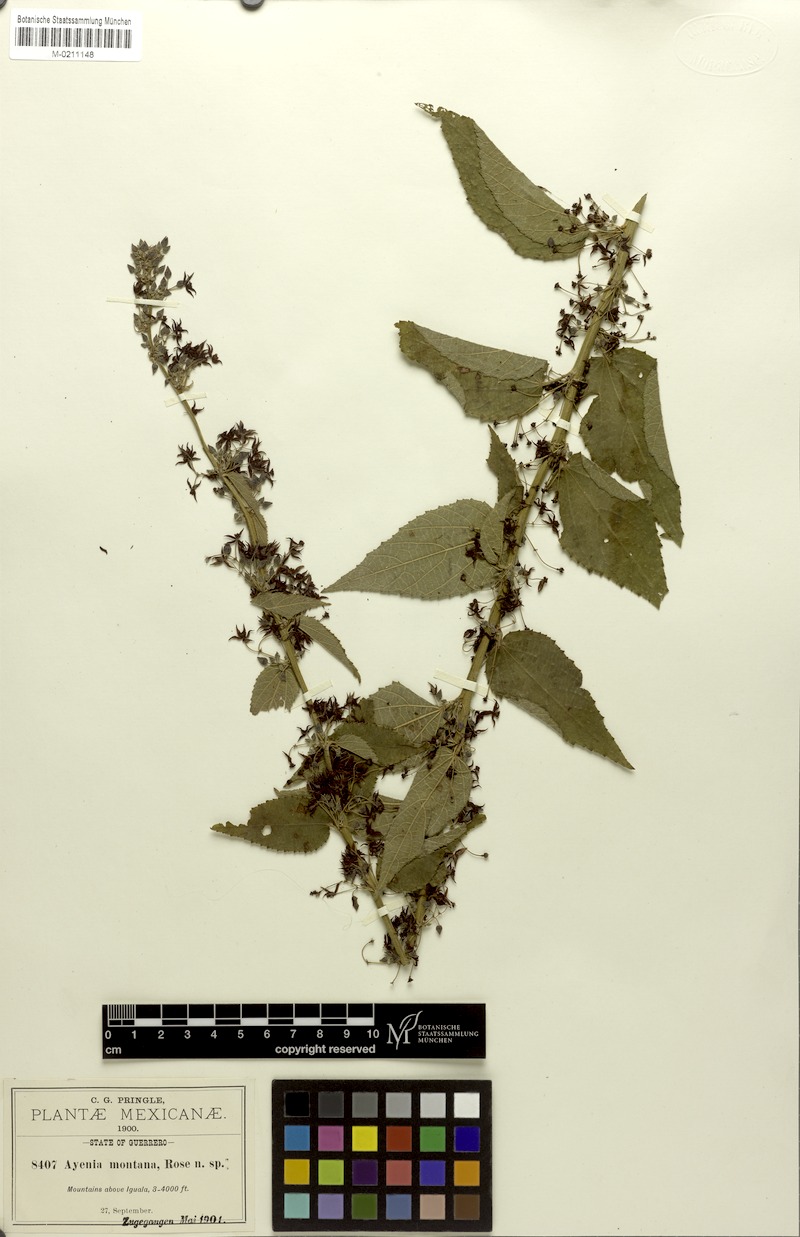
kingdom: Plantae
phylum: Tracheophyta
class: Magnoliopsida
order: Malvales
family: Malvaceae
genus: Ayenia
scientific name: Ayenia montana
